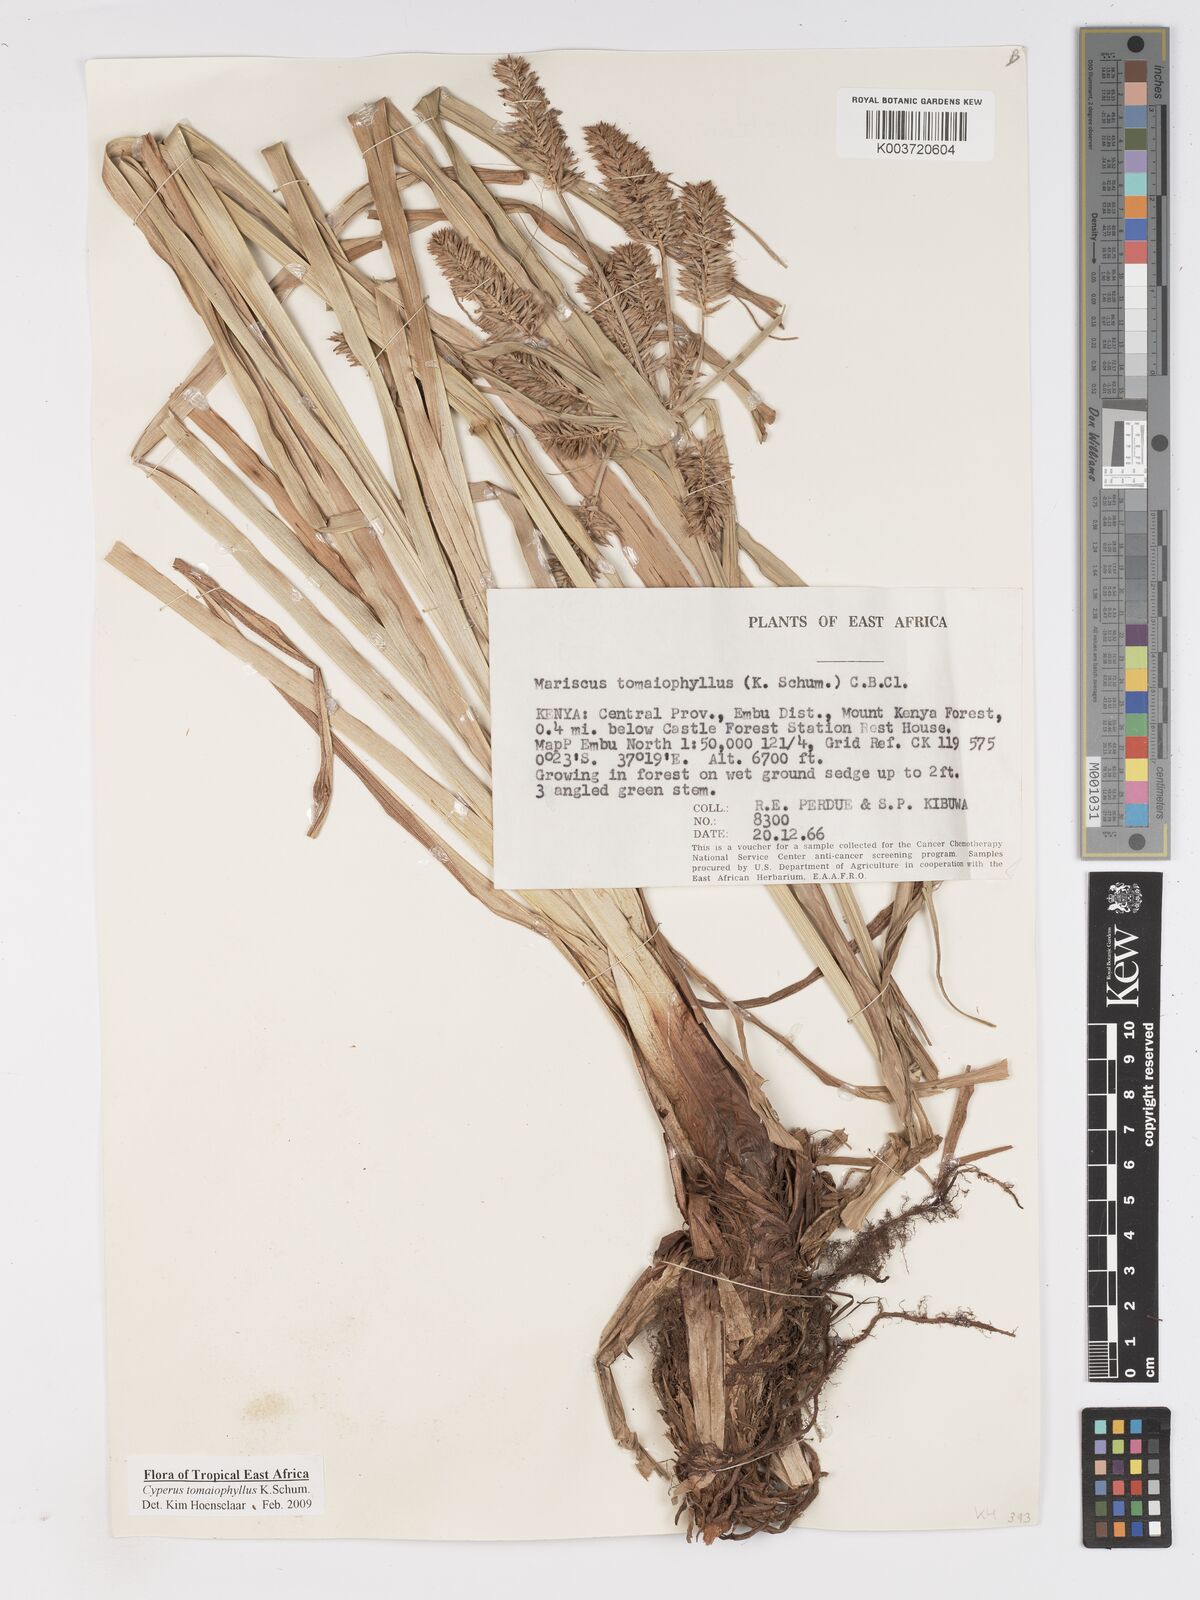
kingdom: Plantae
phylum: Tracheophyta
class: Liliopsida
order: Poales
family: Cyperaceae
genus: Cyperus
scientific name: Cyperus tomaiophyllus
